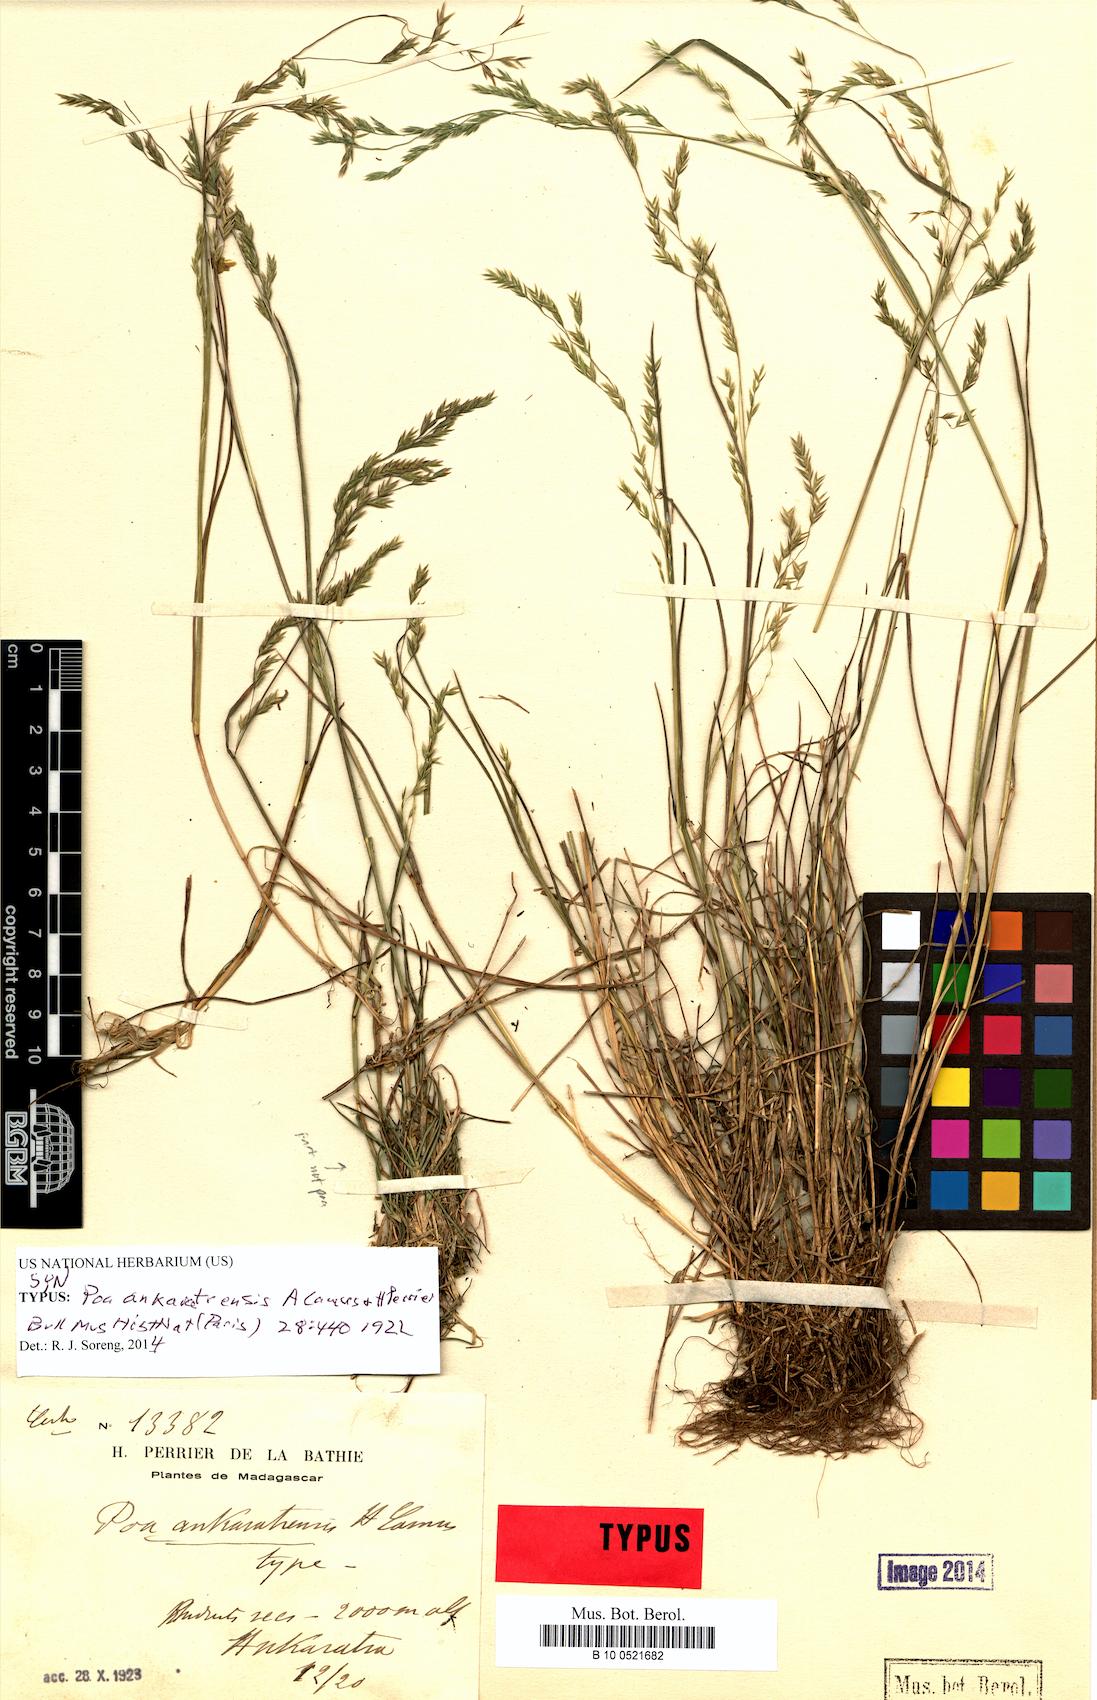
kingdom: Plantae
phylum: Tracheophyta
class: Liliopsida
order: Poales
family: Poaceae
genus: Poa
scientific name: Poa ankaratrensis
